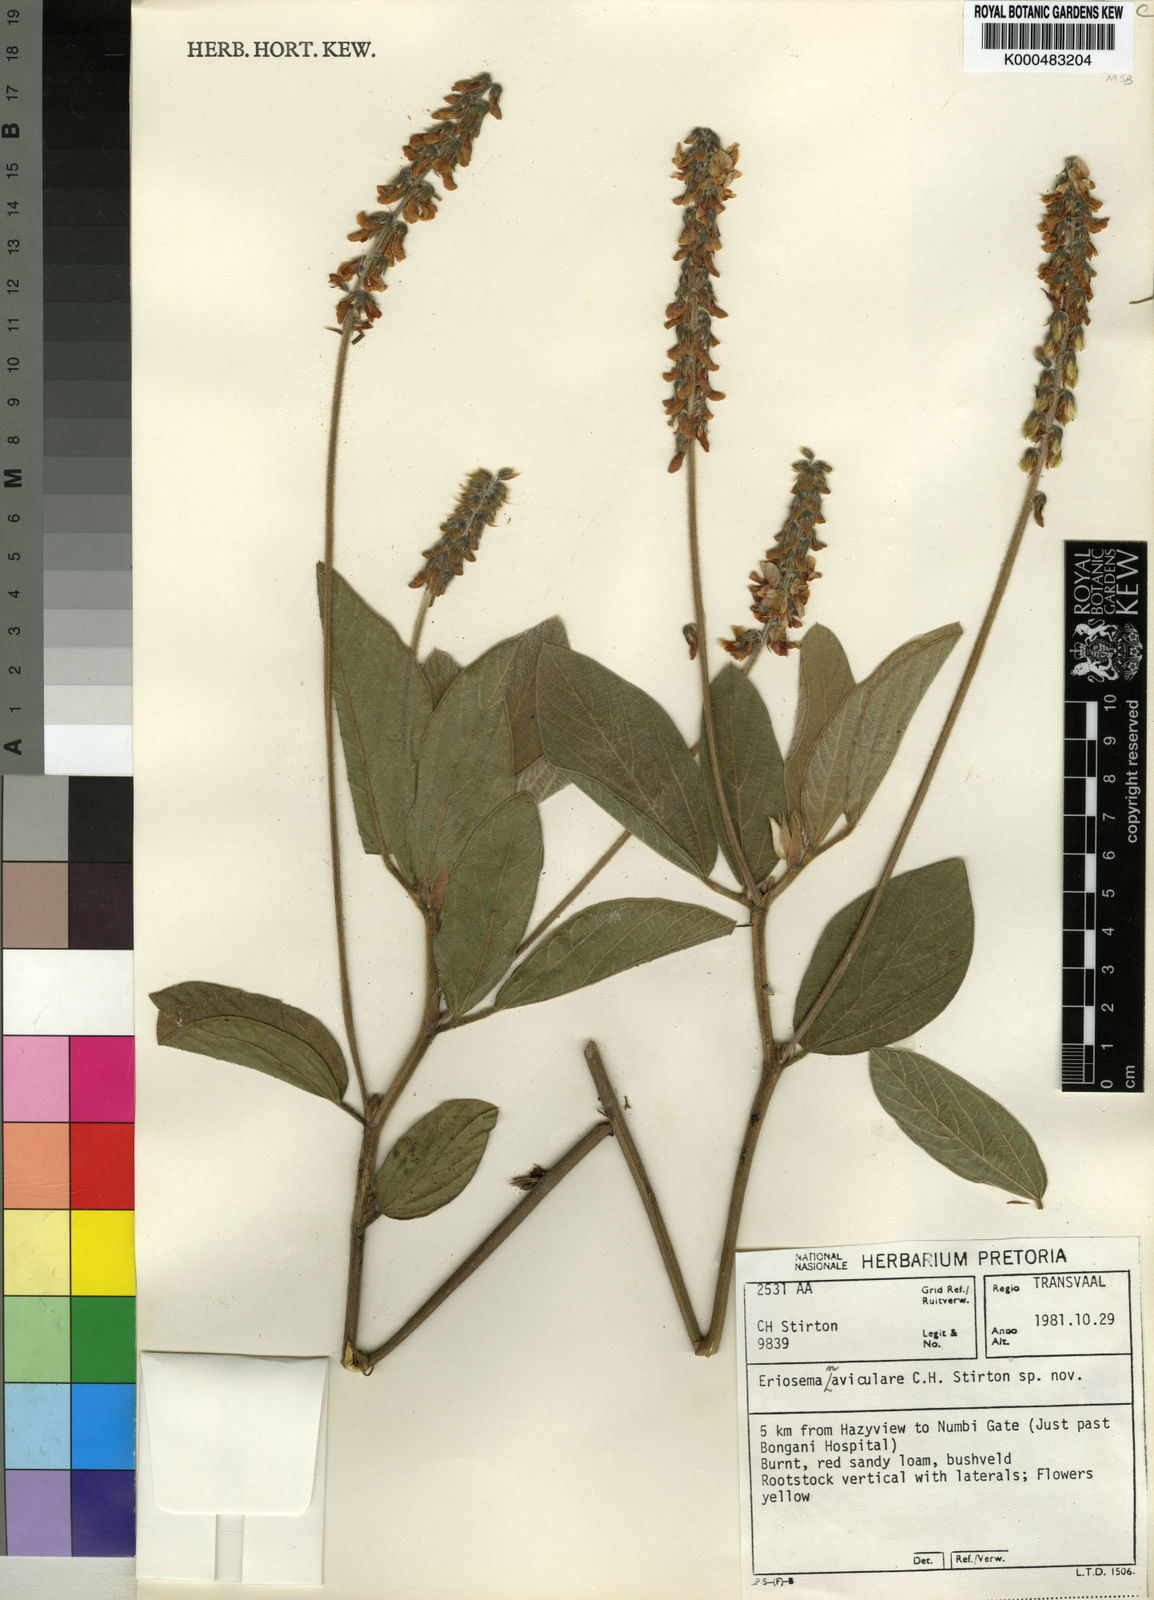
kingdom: Plantae
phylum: Tracheophyta
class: Magnoliopsida
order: Fabales
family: Fabaceae
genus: Eriosema
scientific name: Eriosema naviculare
